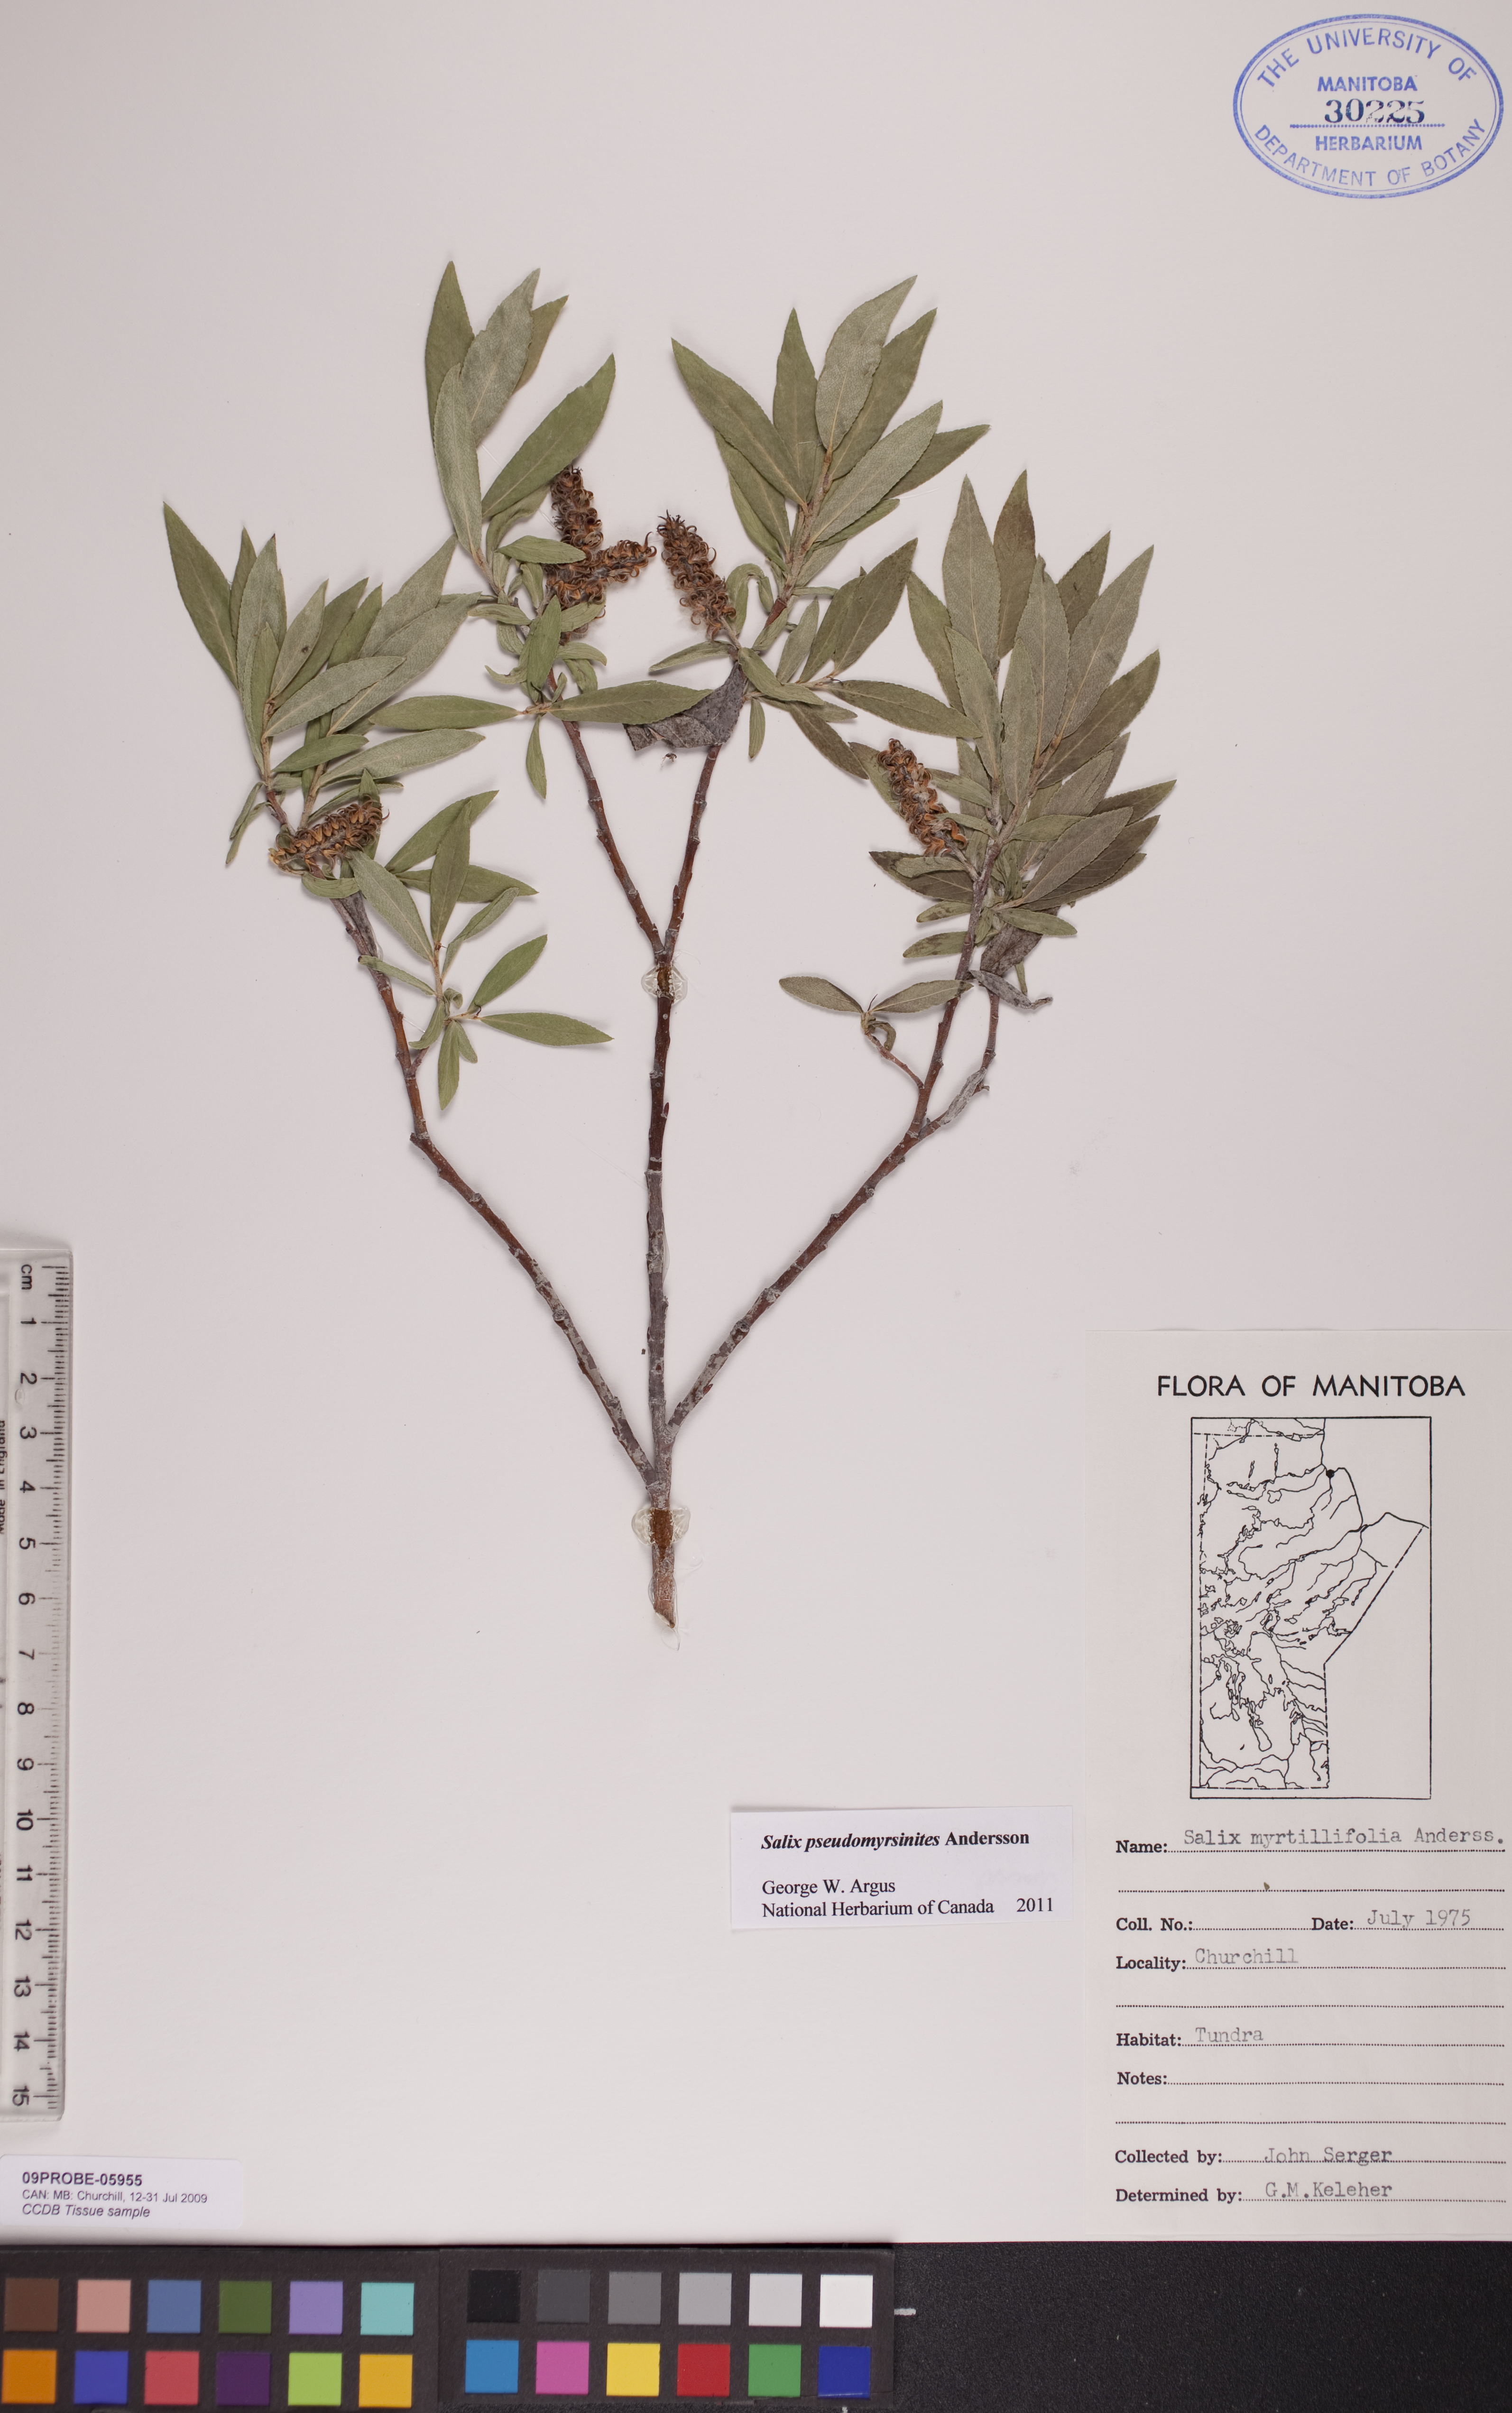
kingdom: Plantae
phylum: Tracheophyta
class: Magnoliopsida
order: Malpighiales
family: Salicaceae
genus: Salix
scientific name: Salix pseudomyrsinites
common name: Tall blueberry willow
